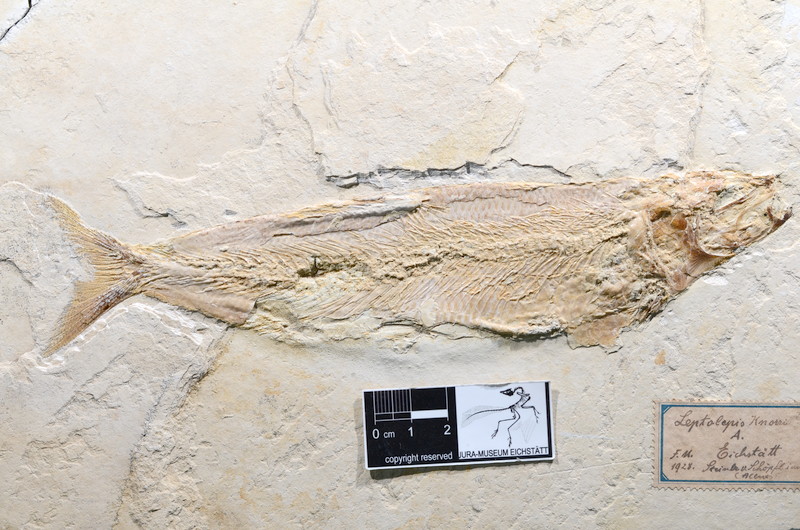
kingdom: Animalia
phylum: Chordata
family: Ascalaboidae
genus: Tharsis
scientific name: Tharsis dubius
